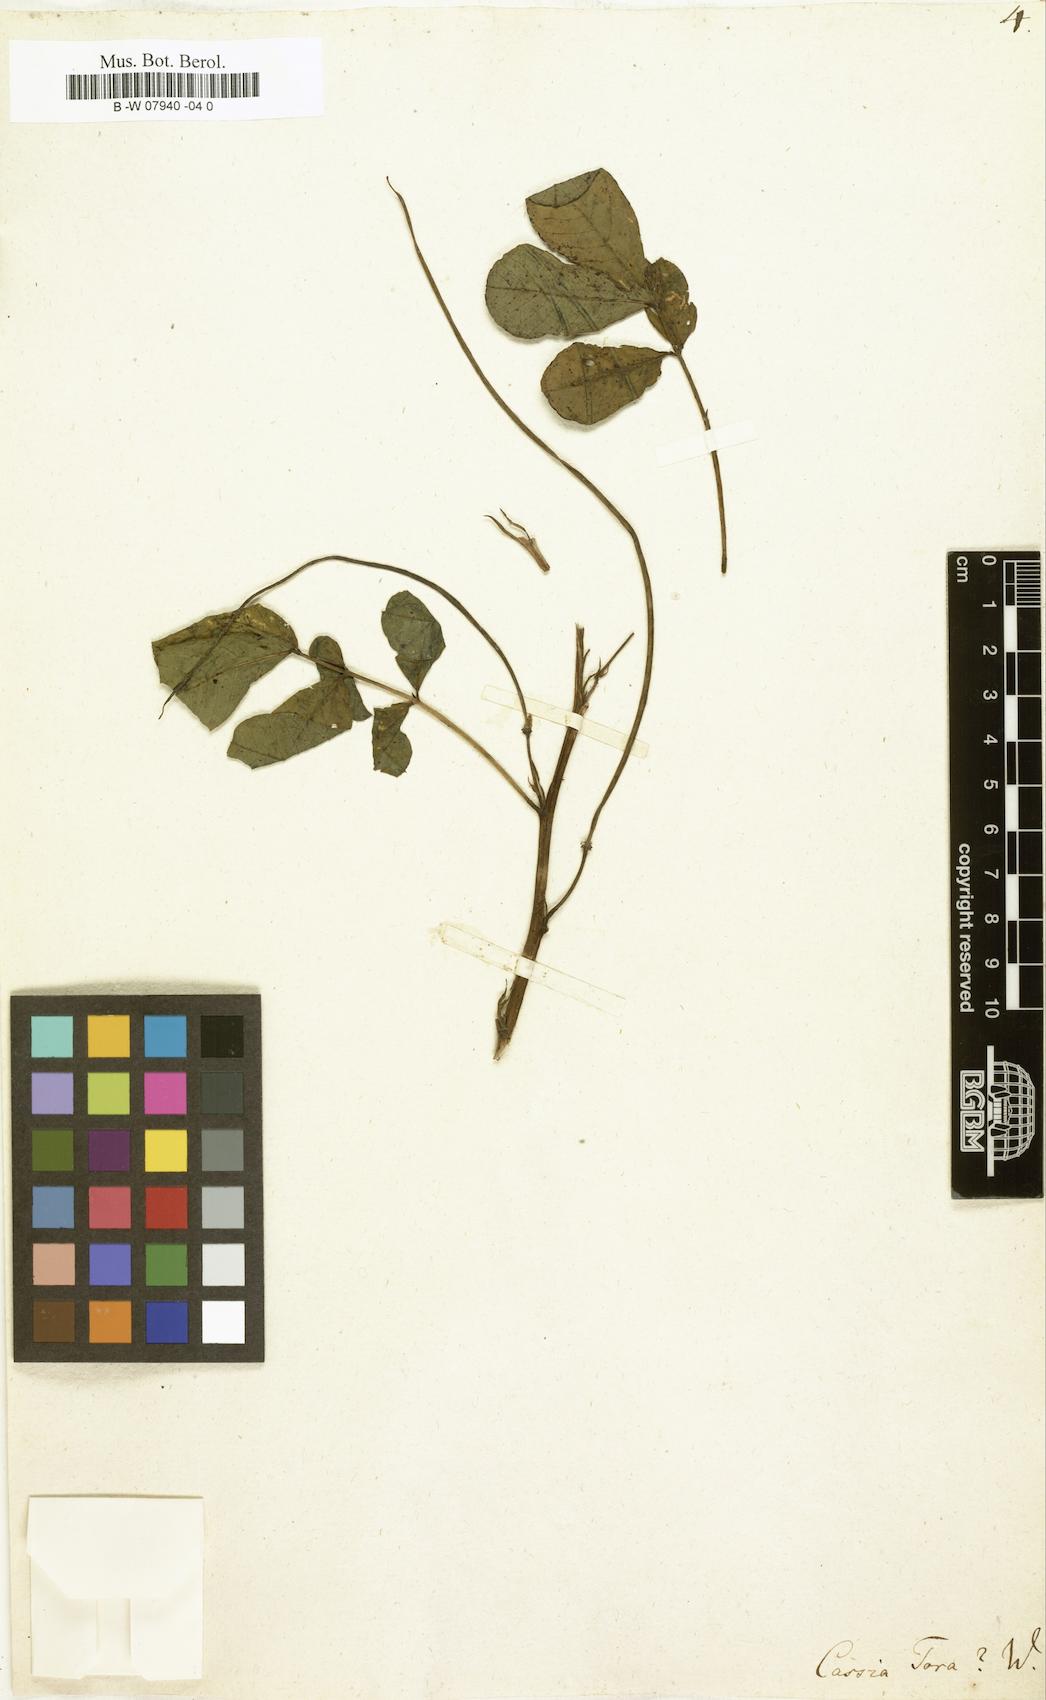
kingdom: Plantae
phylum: Tracheophyta
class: Magnoliopsida
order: Fabales
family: Fabaceae
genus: Senna
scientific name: Senna tora
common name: Sickle senna
